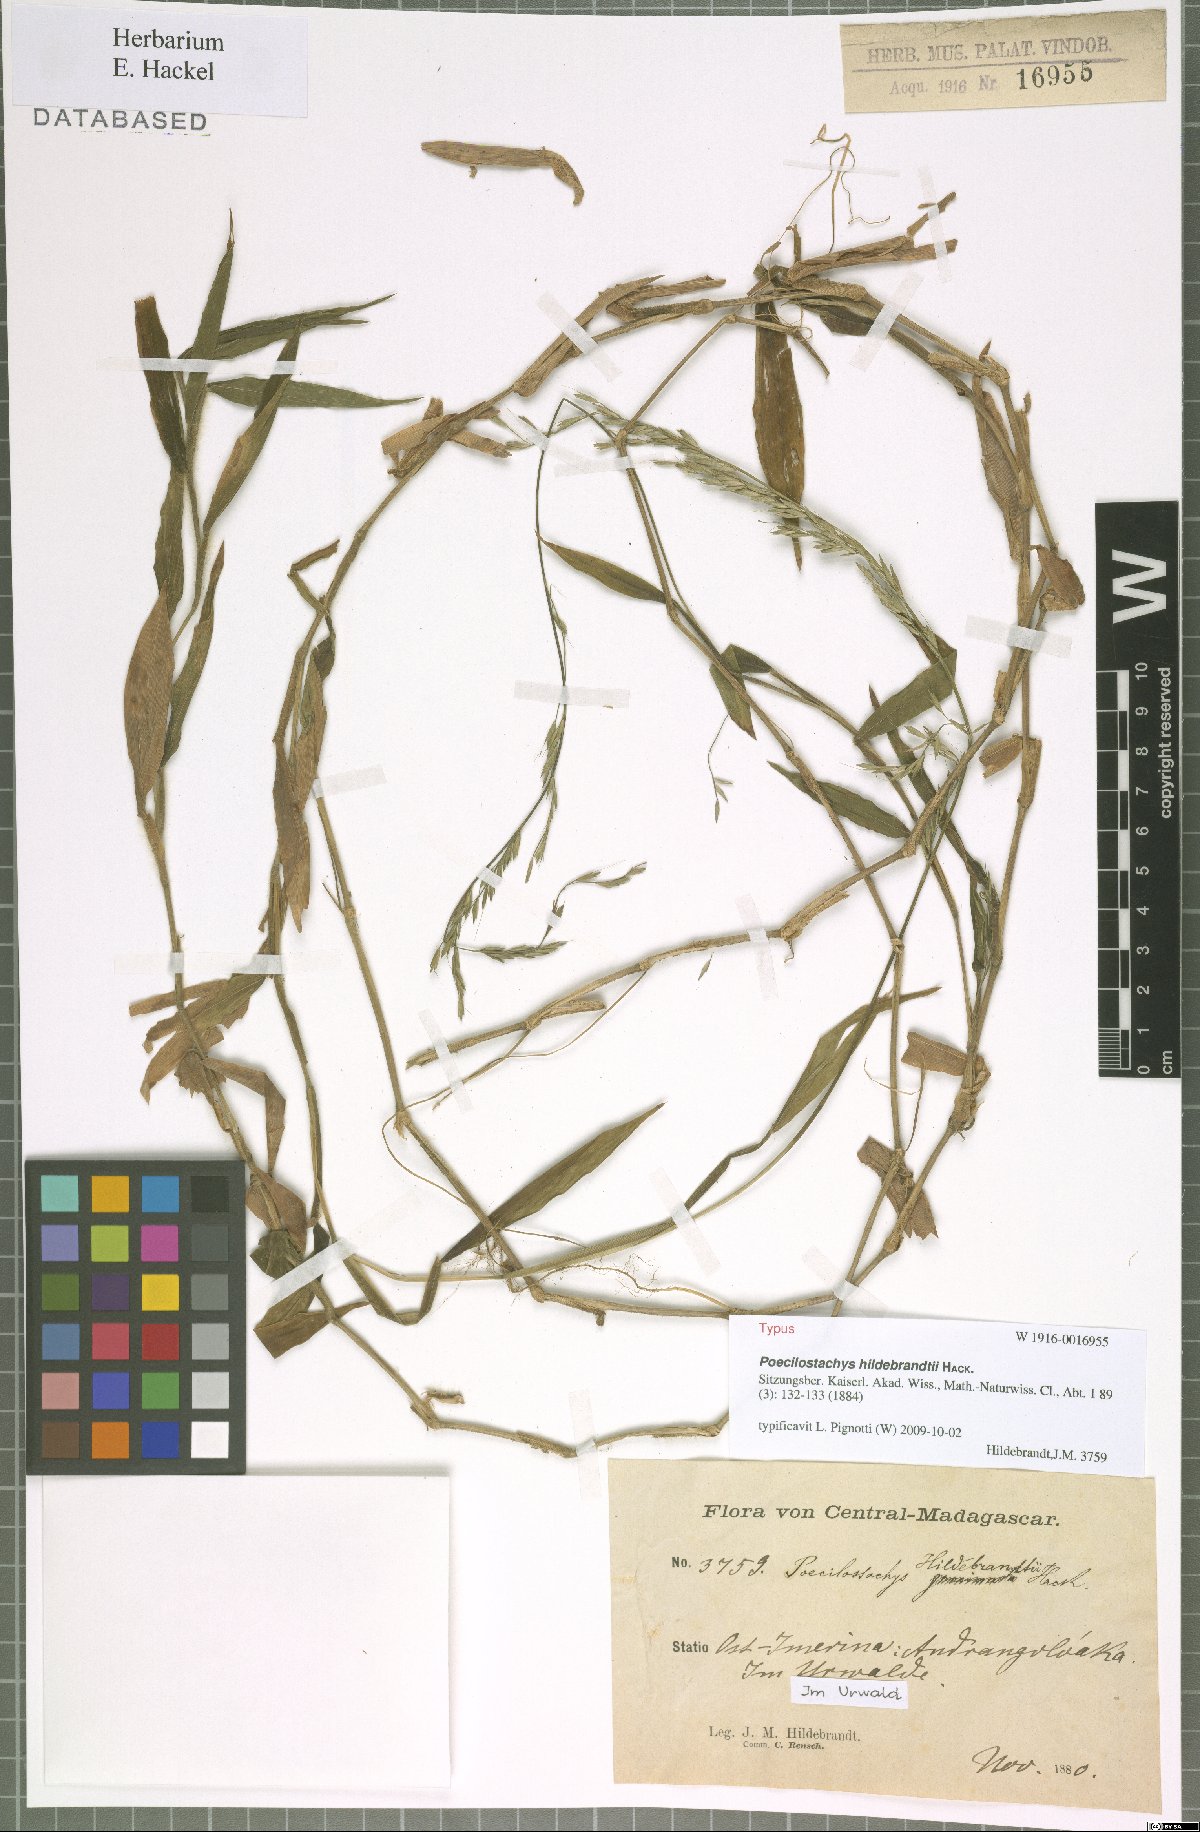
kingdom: Plantae
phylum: Tracheophyta
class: Liliopsida
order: Poales
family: Poaceae
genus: Poecilostachys
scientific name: Poecilostachys hildebrandtii
